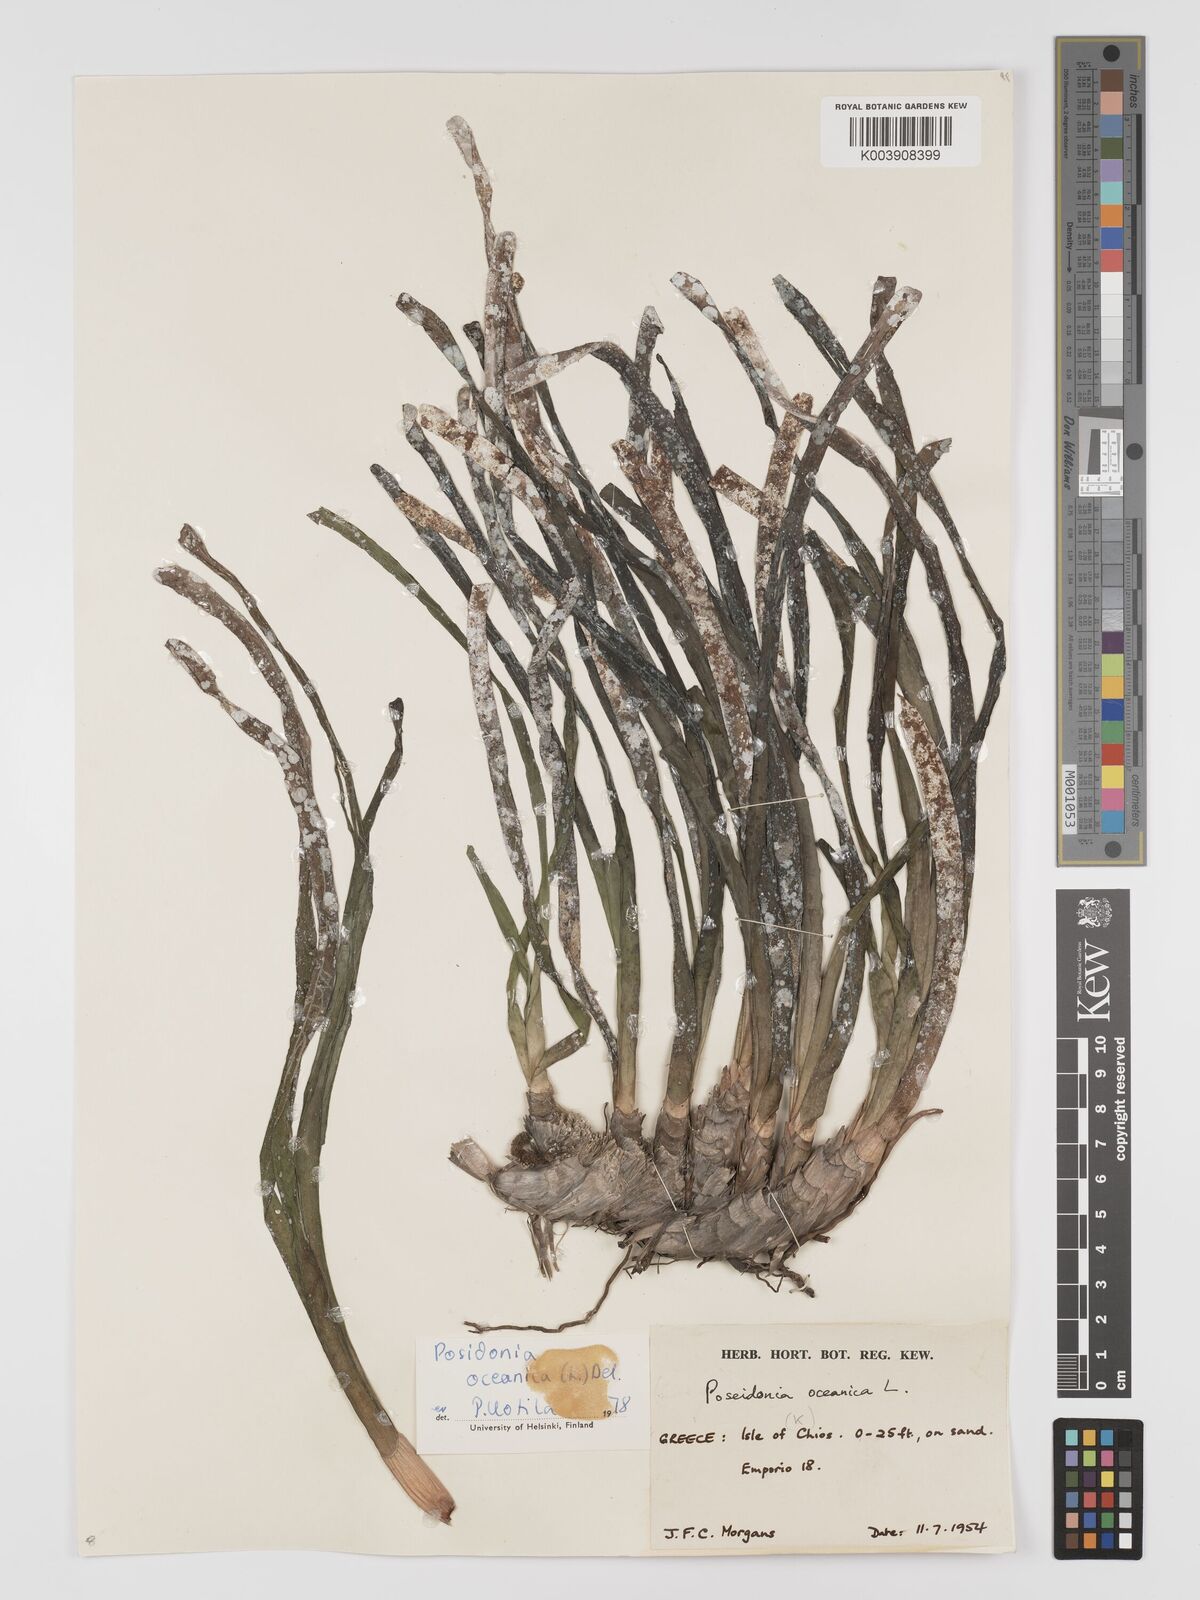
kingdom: Plantae
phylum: Tracheophyta
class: Liliopsida
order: Alismatales
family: Posidoniaceae
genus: Posidonia
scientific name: Posidonia oceanica
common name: Mediterranean tapeweed
